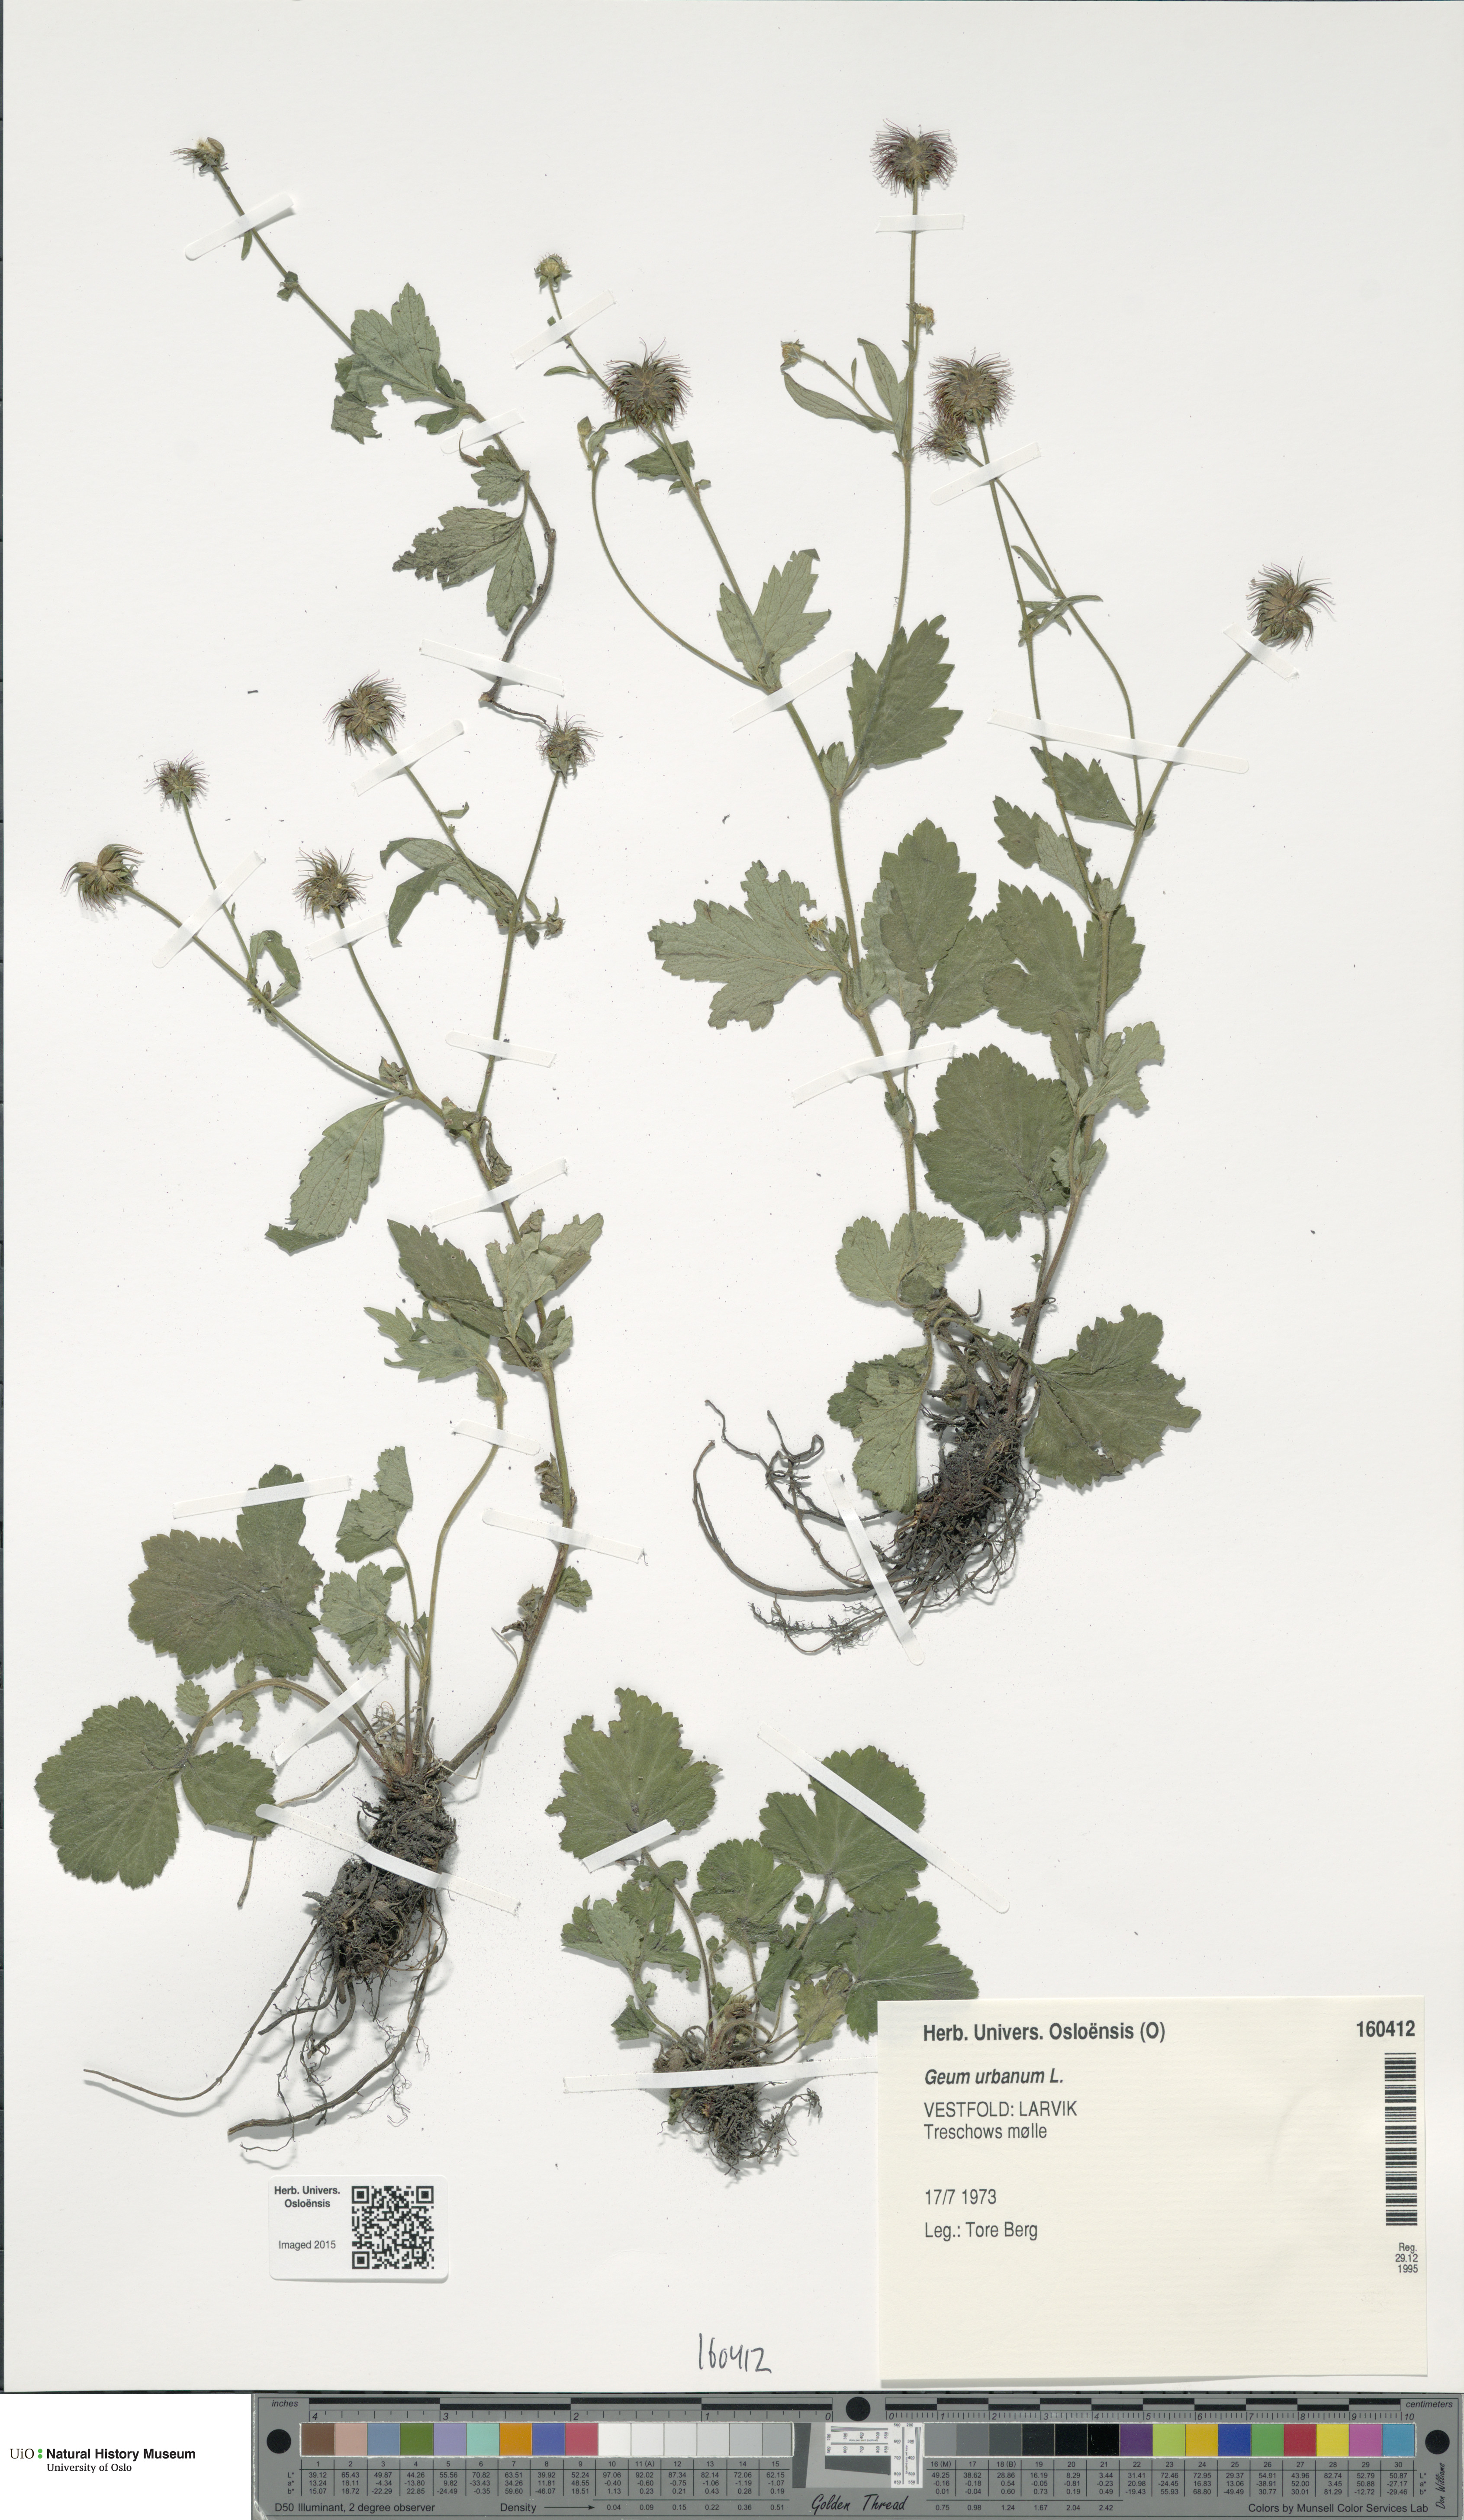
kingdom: Plantae
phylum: Tracheophyta
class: Magnoliopsida
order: Rosales
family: Rosaceae
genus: Geum
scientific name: Geum urbanum
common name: Wood avens
